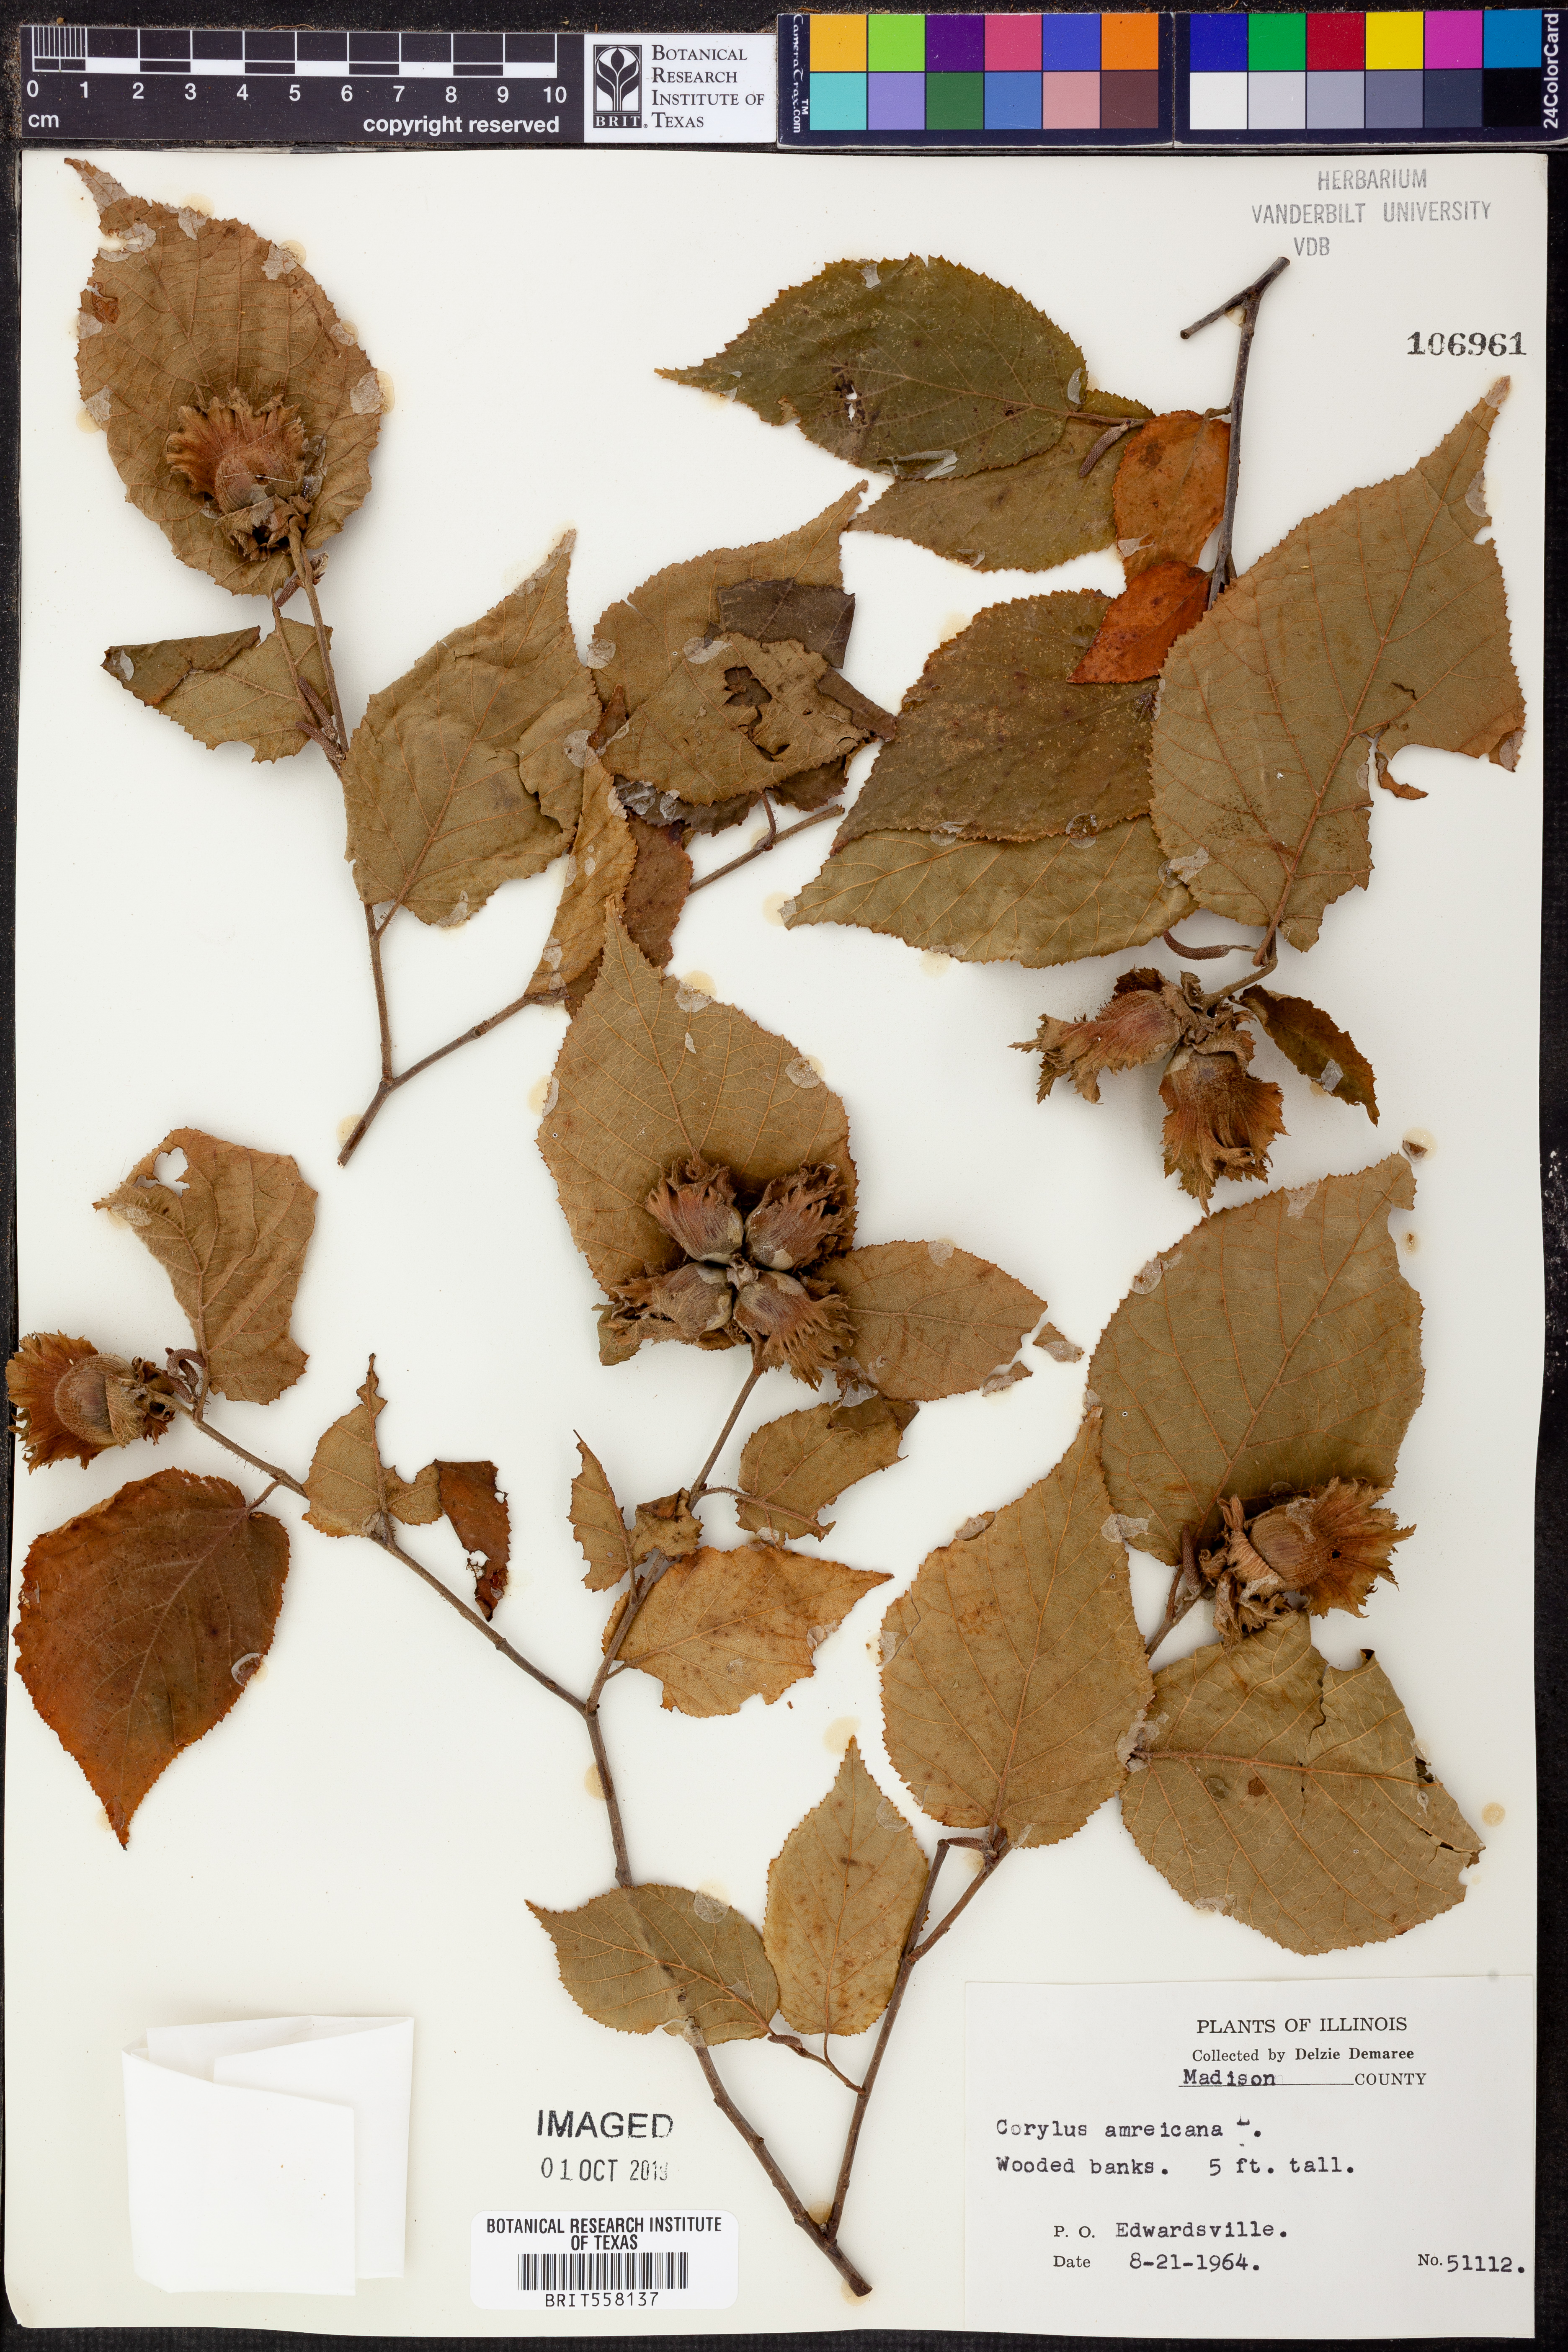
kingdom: Plantae
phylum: Tracheophyta
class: Magnoliopsida
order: Fagales
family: Betulaceae
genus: Corylus
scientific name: Corylus americana
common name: American hazel
